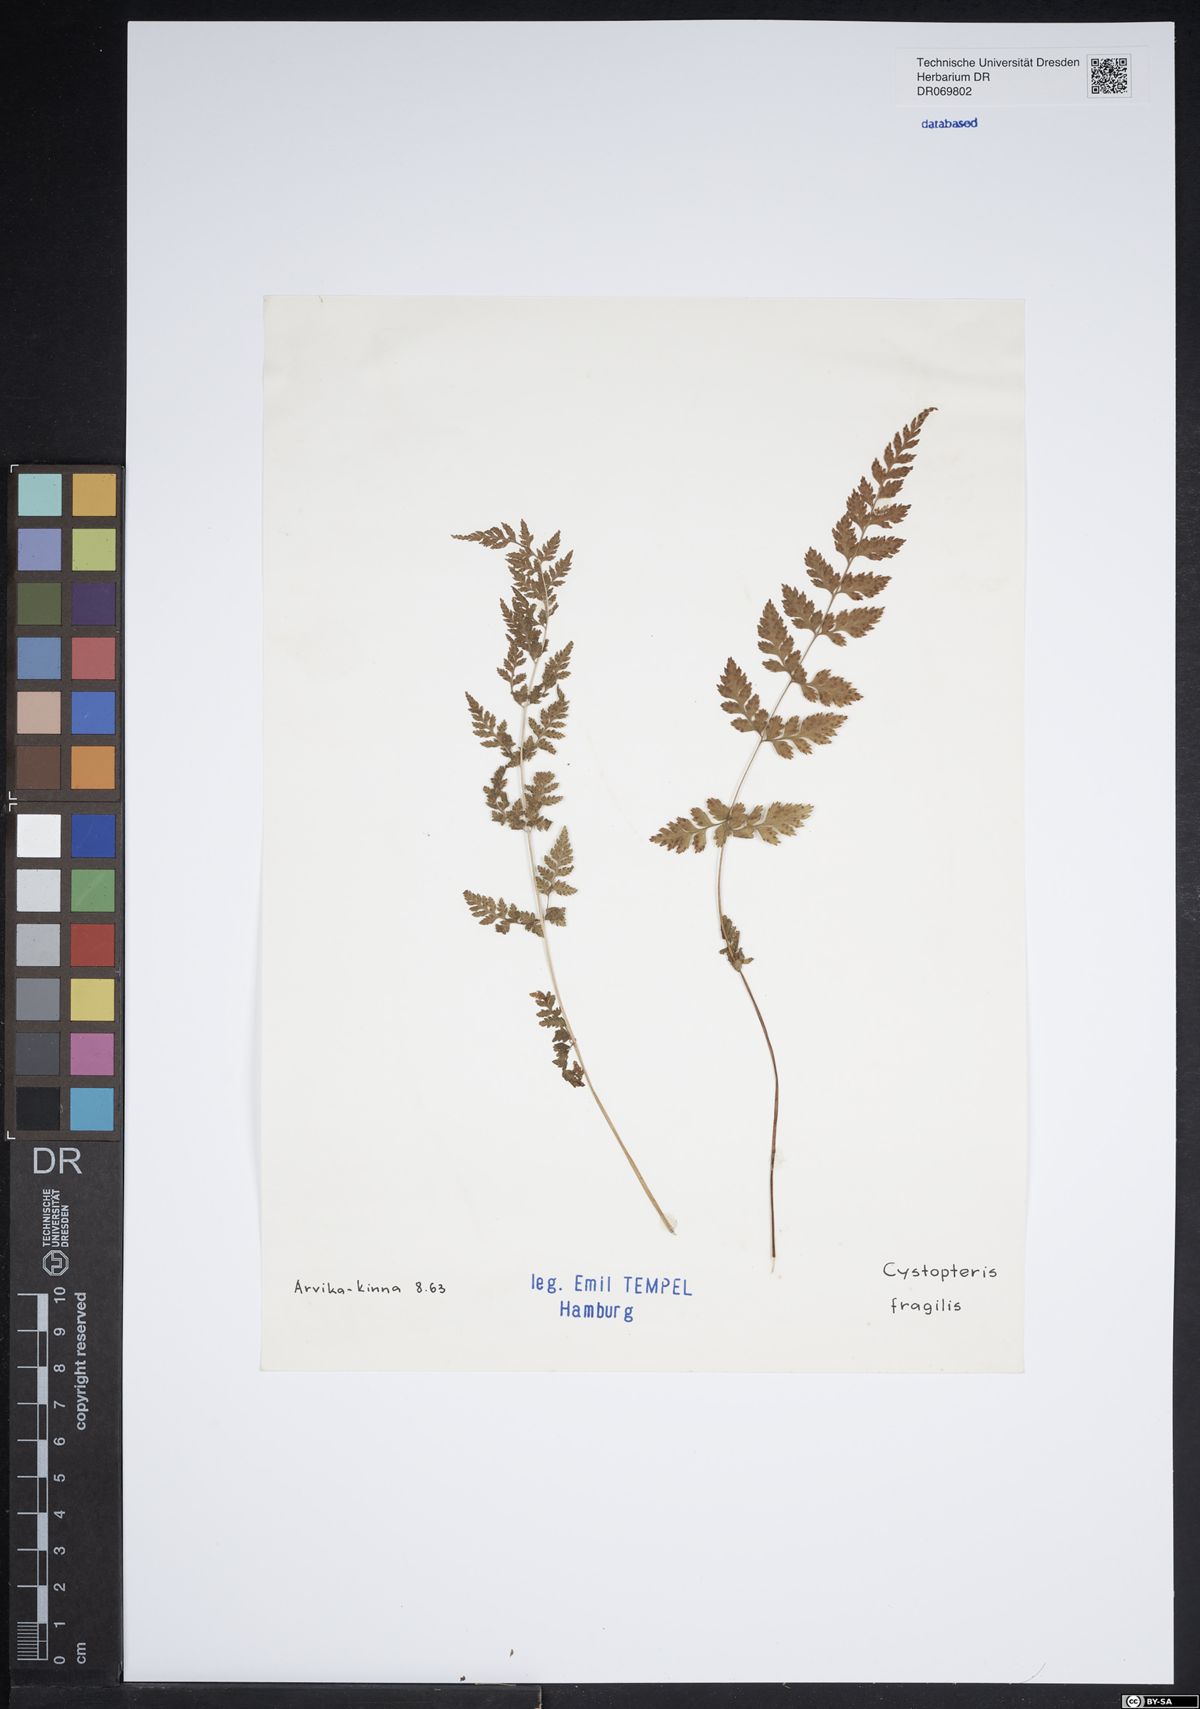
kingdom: Plantae
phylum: Tracheophyta
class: Polypodiopsida
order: Polypodiales
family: Cystopteridaceae
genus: Cystopteris
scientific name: Cystopteris fragilis
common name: Brittle bladder fern
